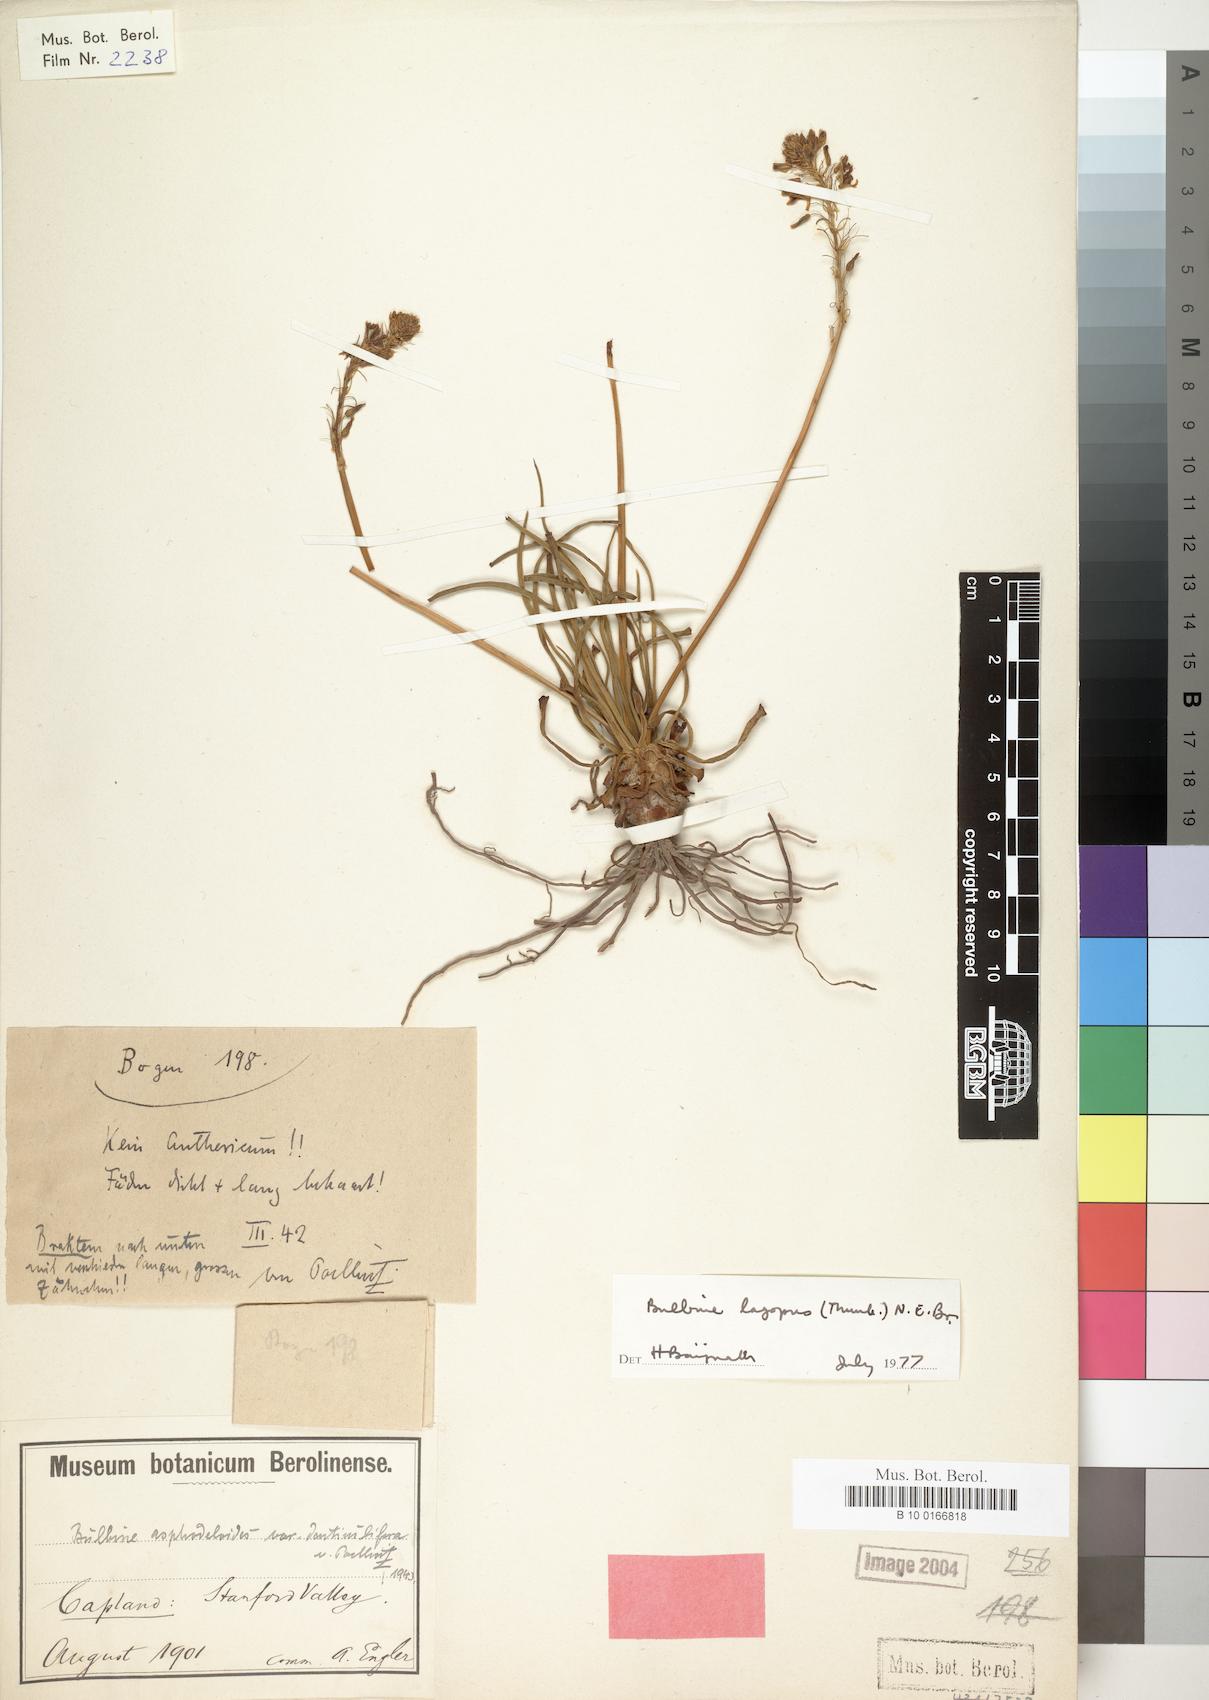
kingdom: Plantae
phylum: Tracheophyta
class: Liliopsida
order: Asparagales
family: Asphodelaceae
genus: Bulbine
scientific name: Bulbine lagopus
